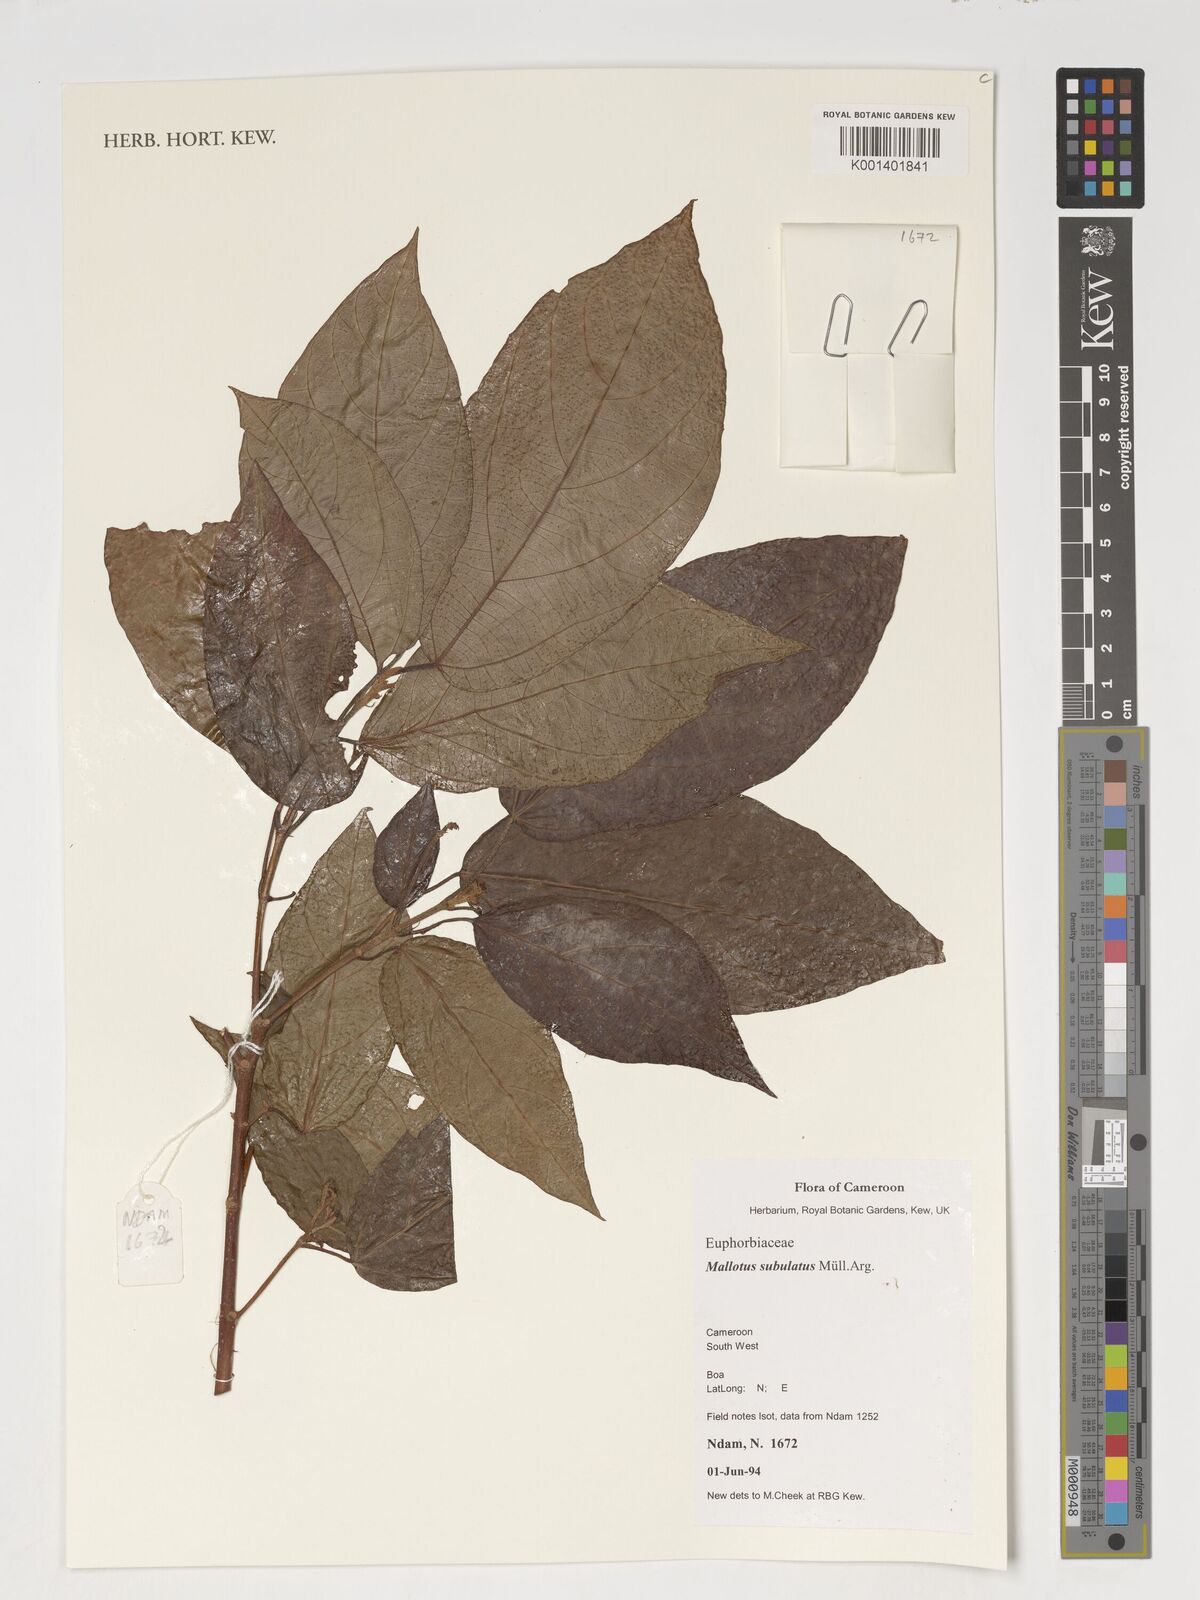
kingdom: Plantae
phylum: Tracheophyta
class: Magnoliopsida
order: Malpighiales
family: Euphorbiaceae
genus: Mallotus
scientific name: Mallotus subulatus
